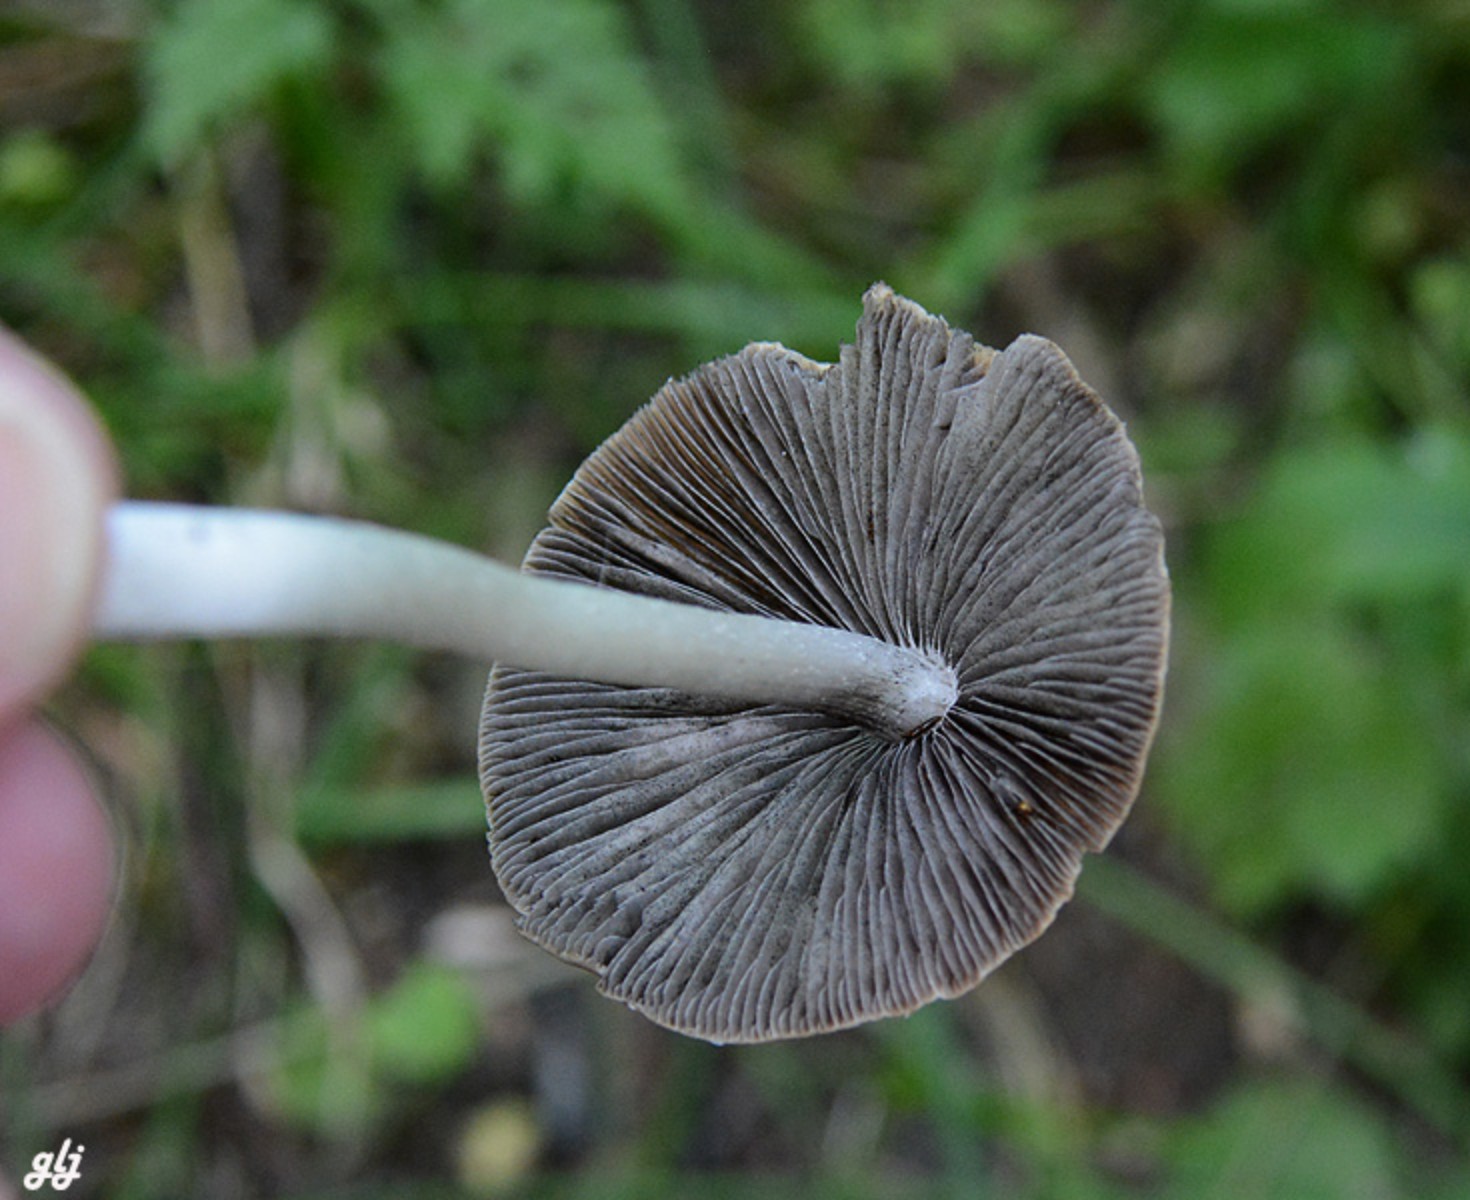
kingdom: Fungi
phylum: Basidiomycota
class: Agaricomycetes
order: Agaricales
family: Psathyrellaceae
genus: Candolleomyces
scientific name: Candolleomyces candolleanus
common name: Candolles mørkhat
